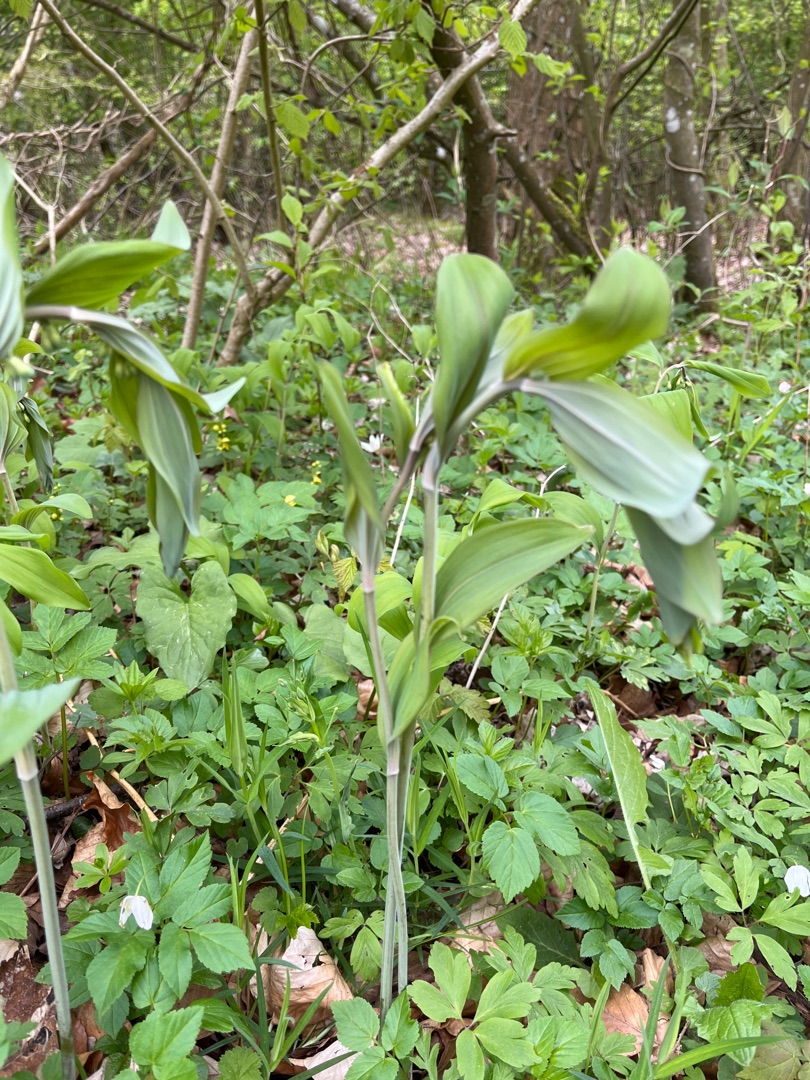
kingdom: Plantae
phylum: Tracheophyta
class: Liliopsida
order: Asparagales
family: Asparagaceae
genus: Polygonatum
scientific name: Polygonatum multiflorum
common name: Stor konval
